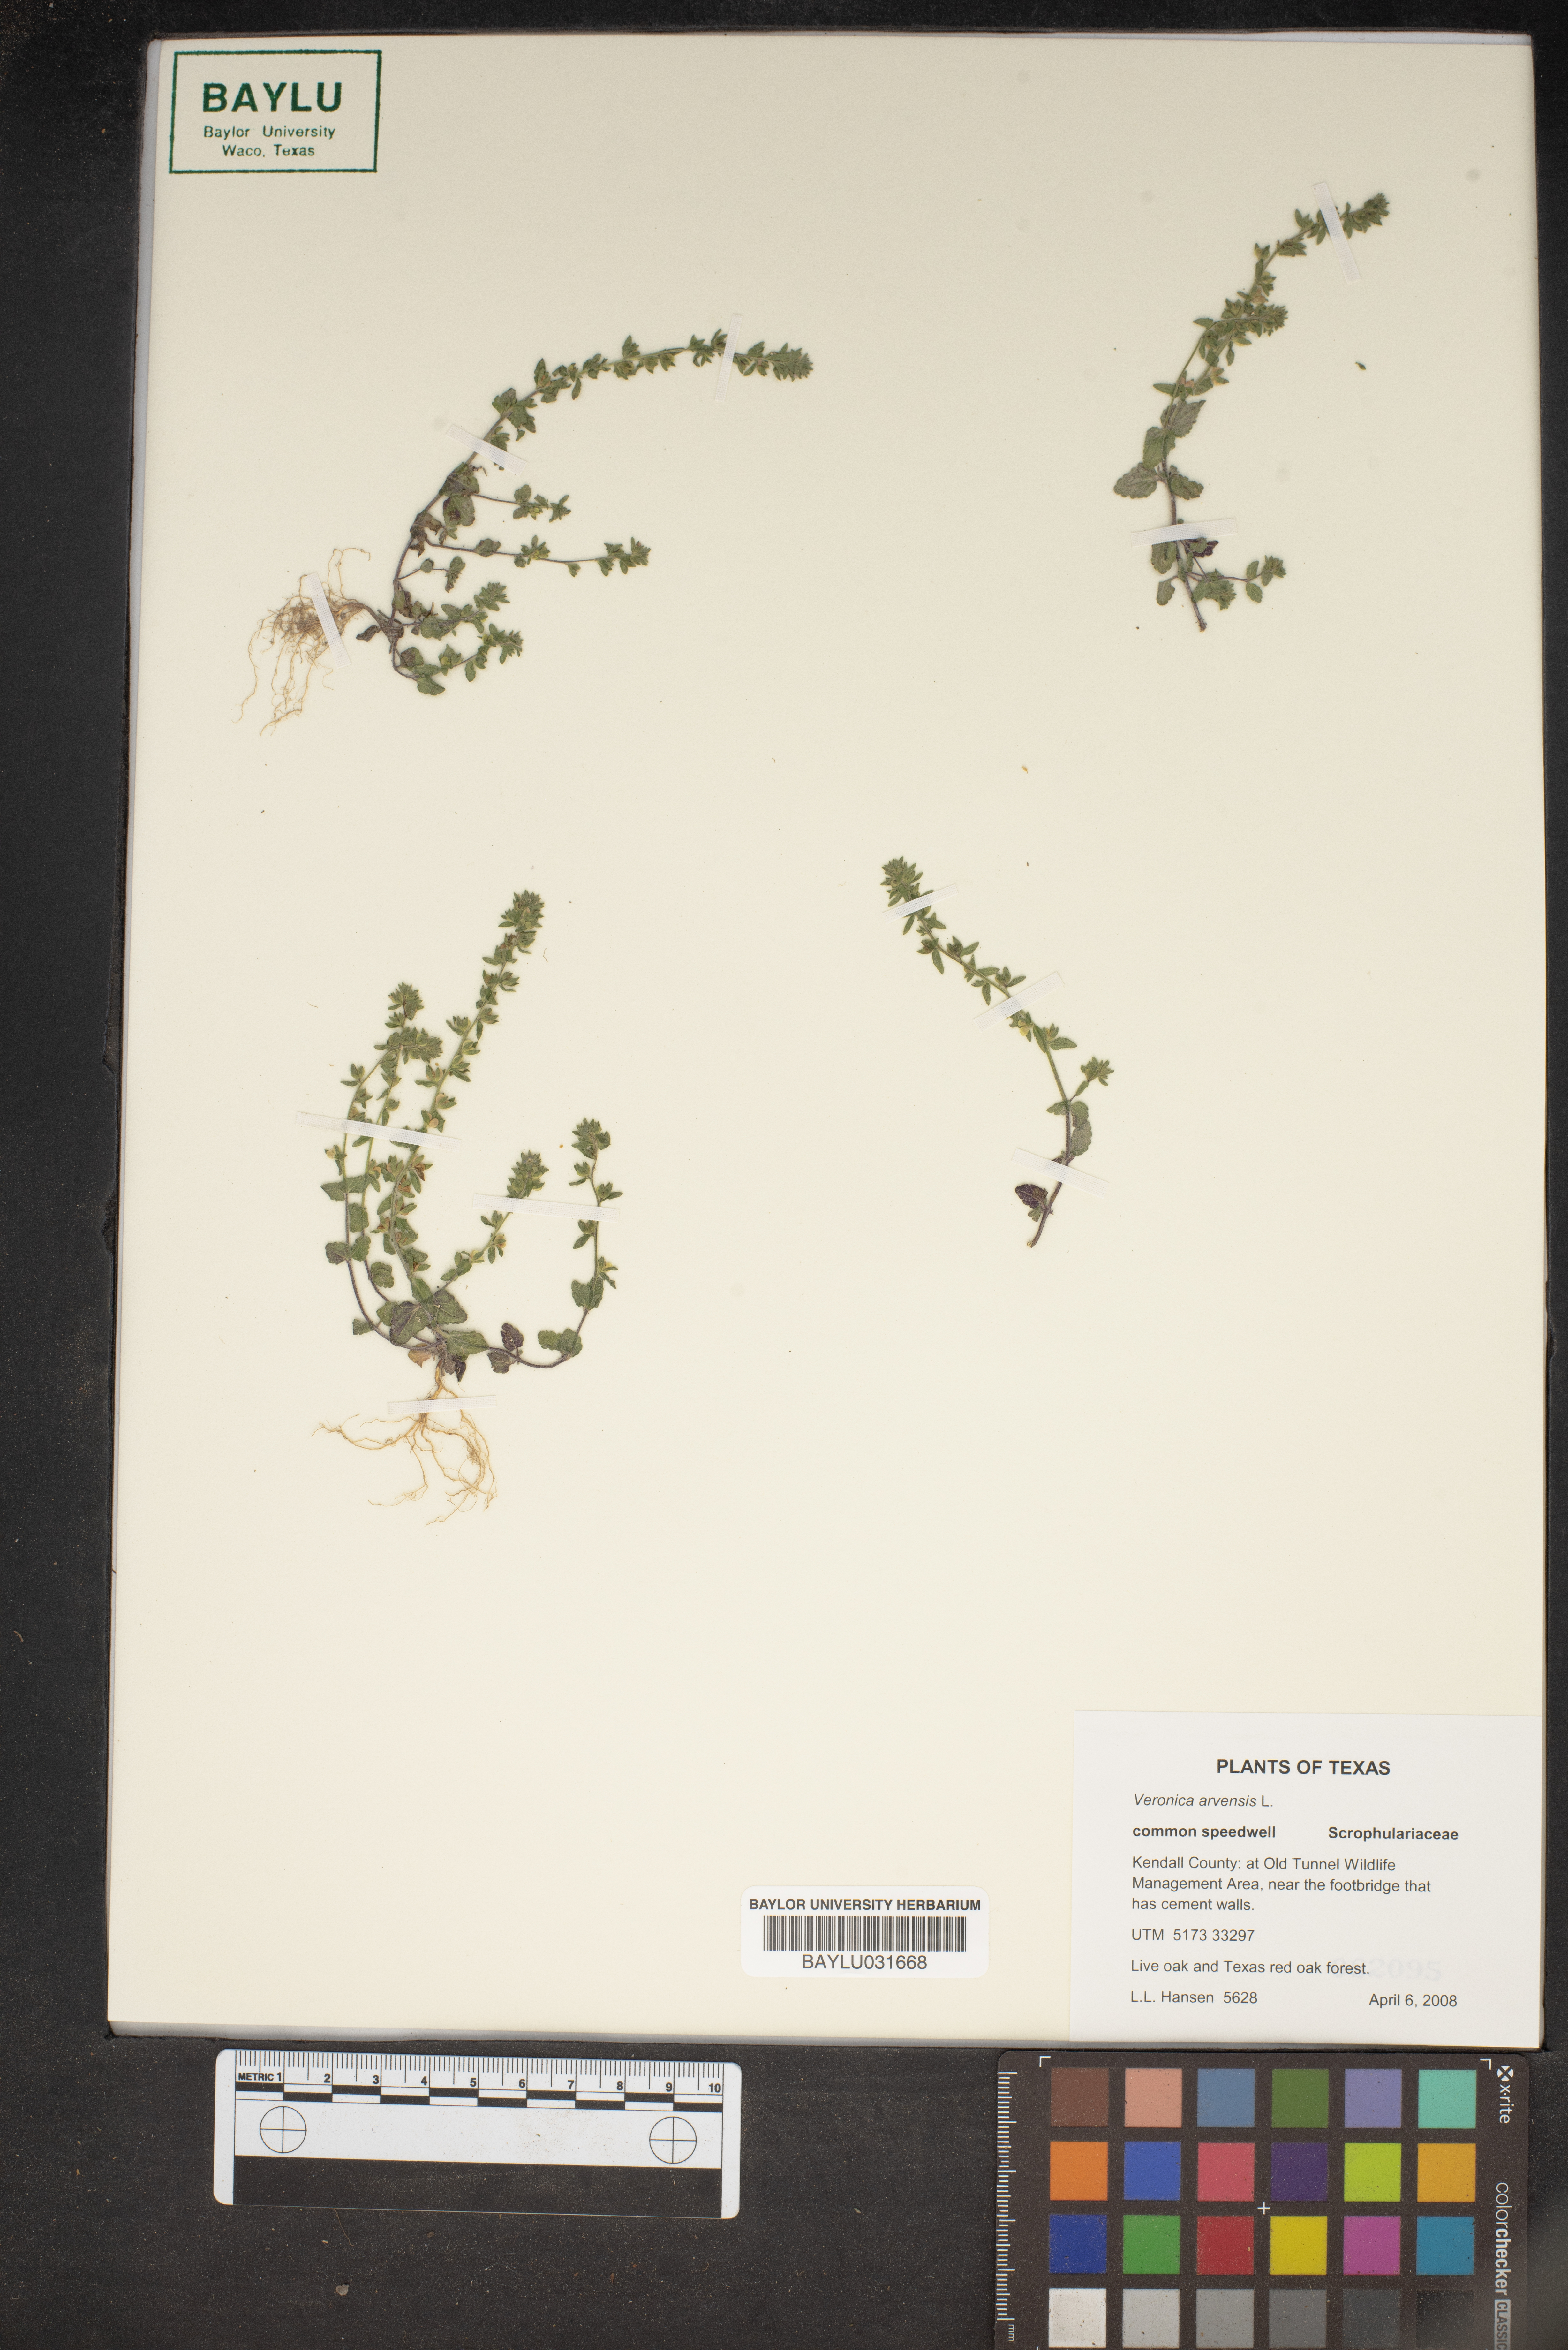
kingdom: Plantae
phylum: Tracheophyta
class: Magnoliopsida
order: Lamiales
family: Plantaginaceae
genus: Veronica
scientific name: Veronica arvensis
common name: Corn speedwell
